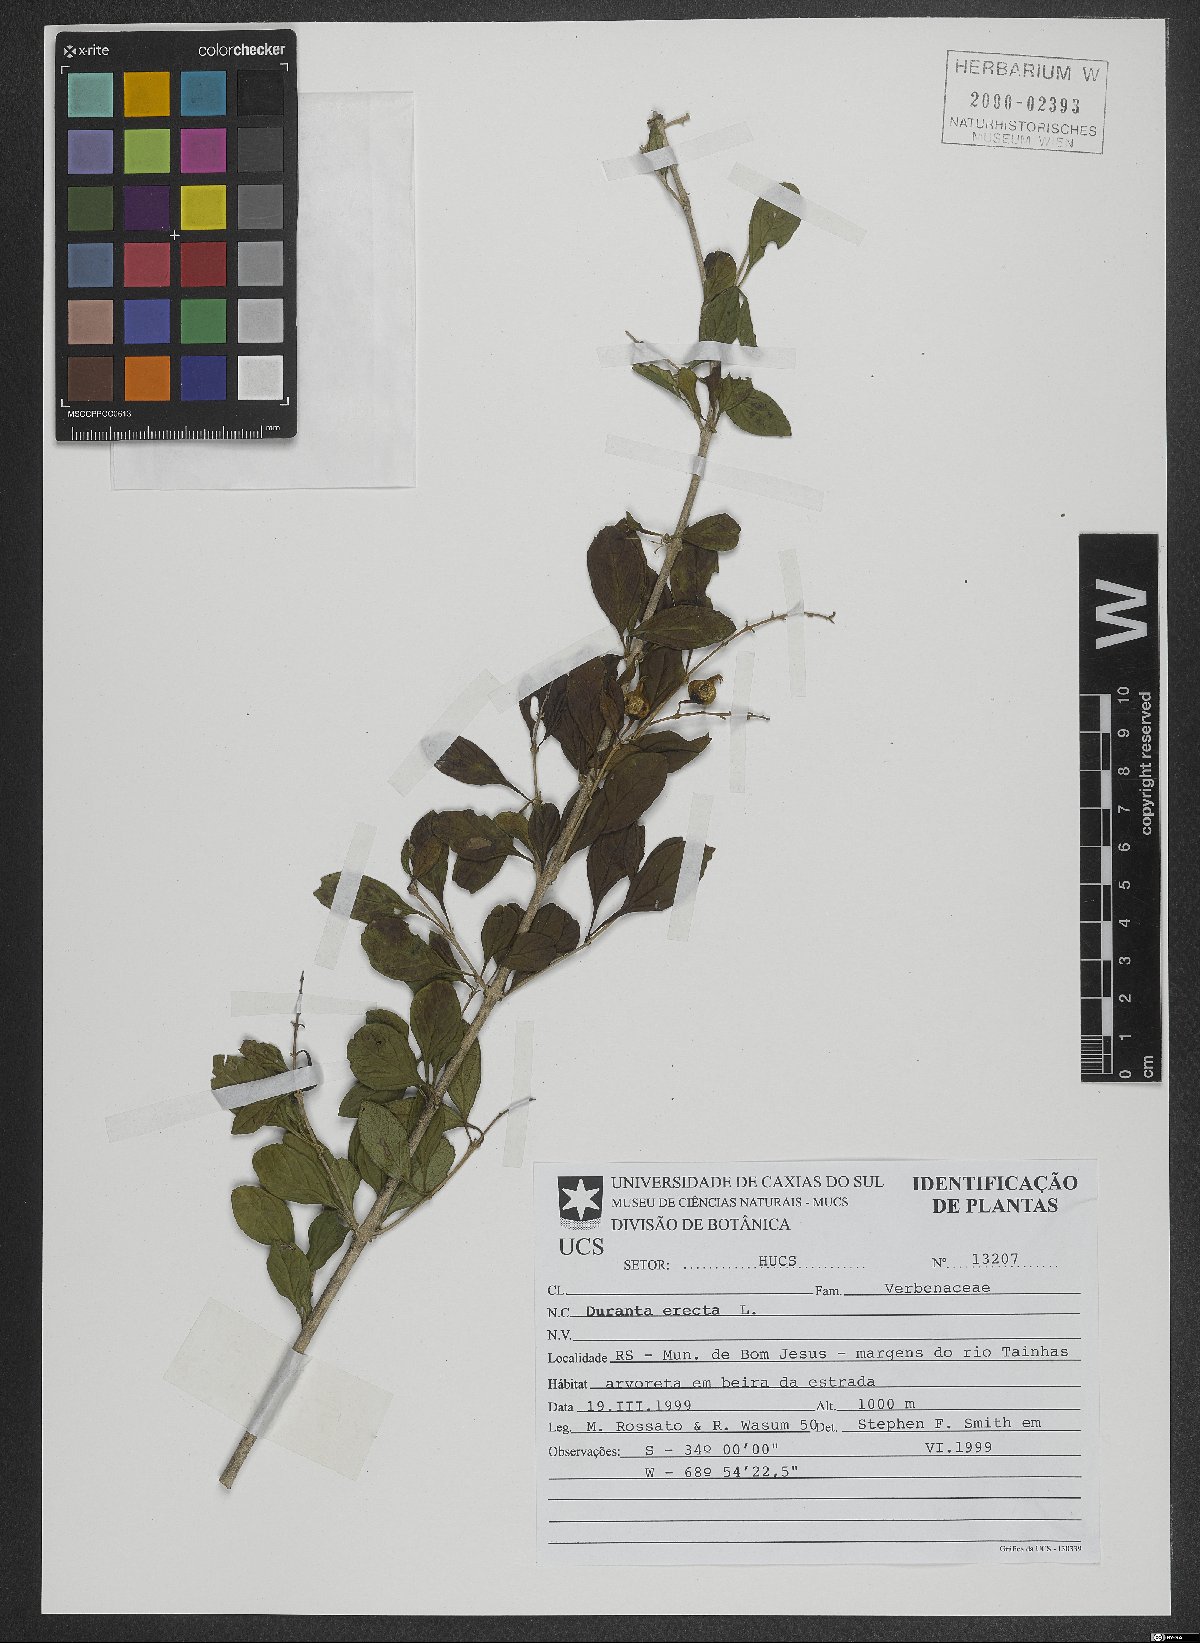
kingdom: Plantae
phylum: Tracheophyta
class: Magnoliopsida
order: Lamiales
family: Verbenaceae
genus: Duranta
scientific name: Duranta erecta
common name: Golden dewdrops
